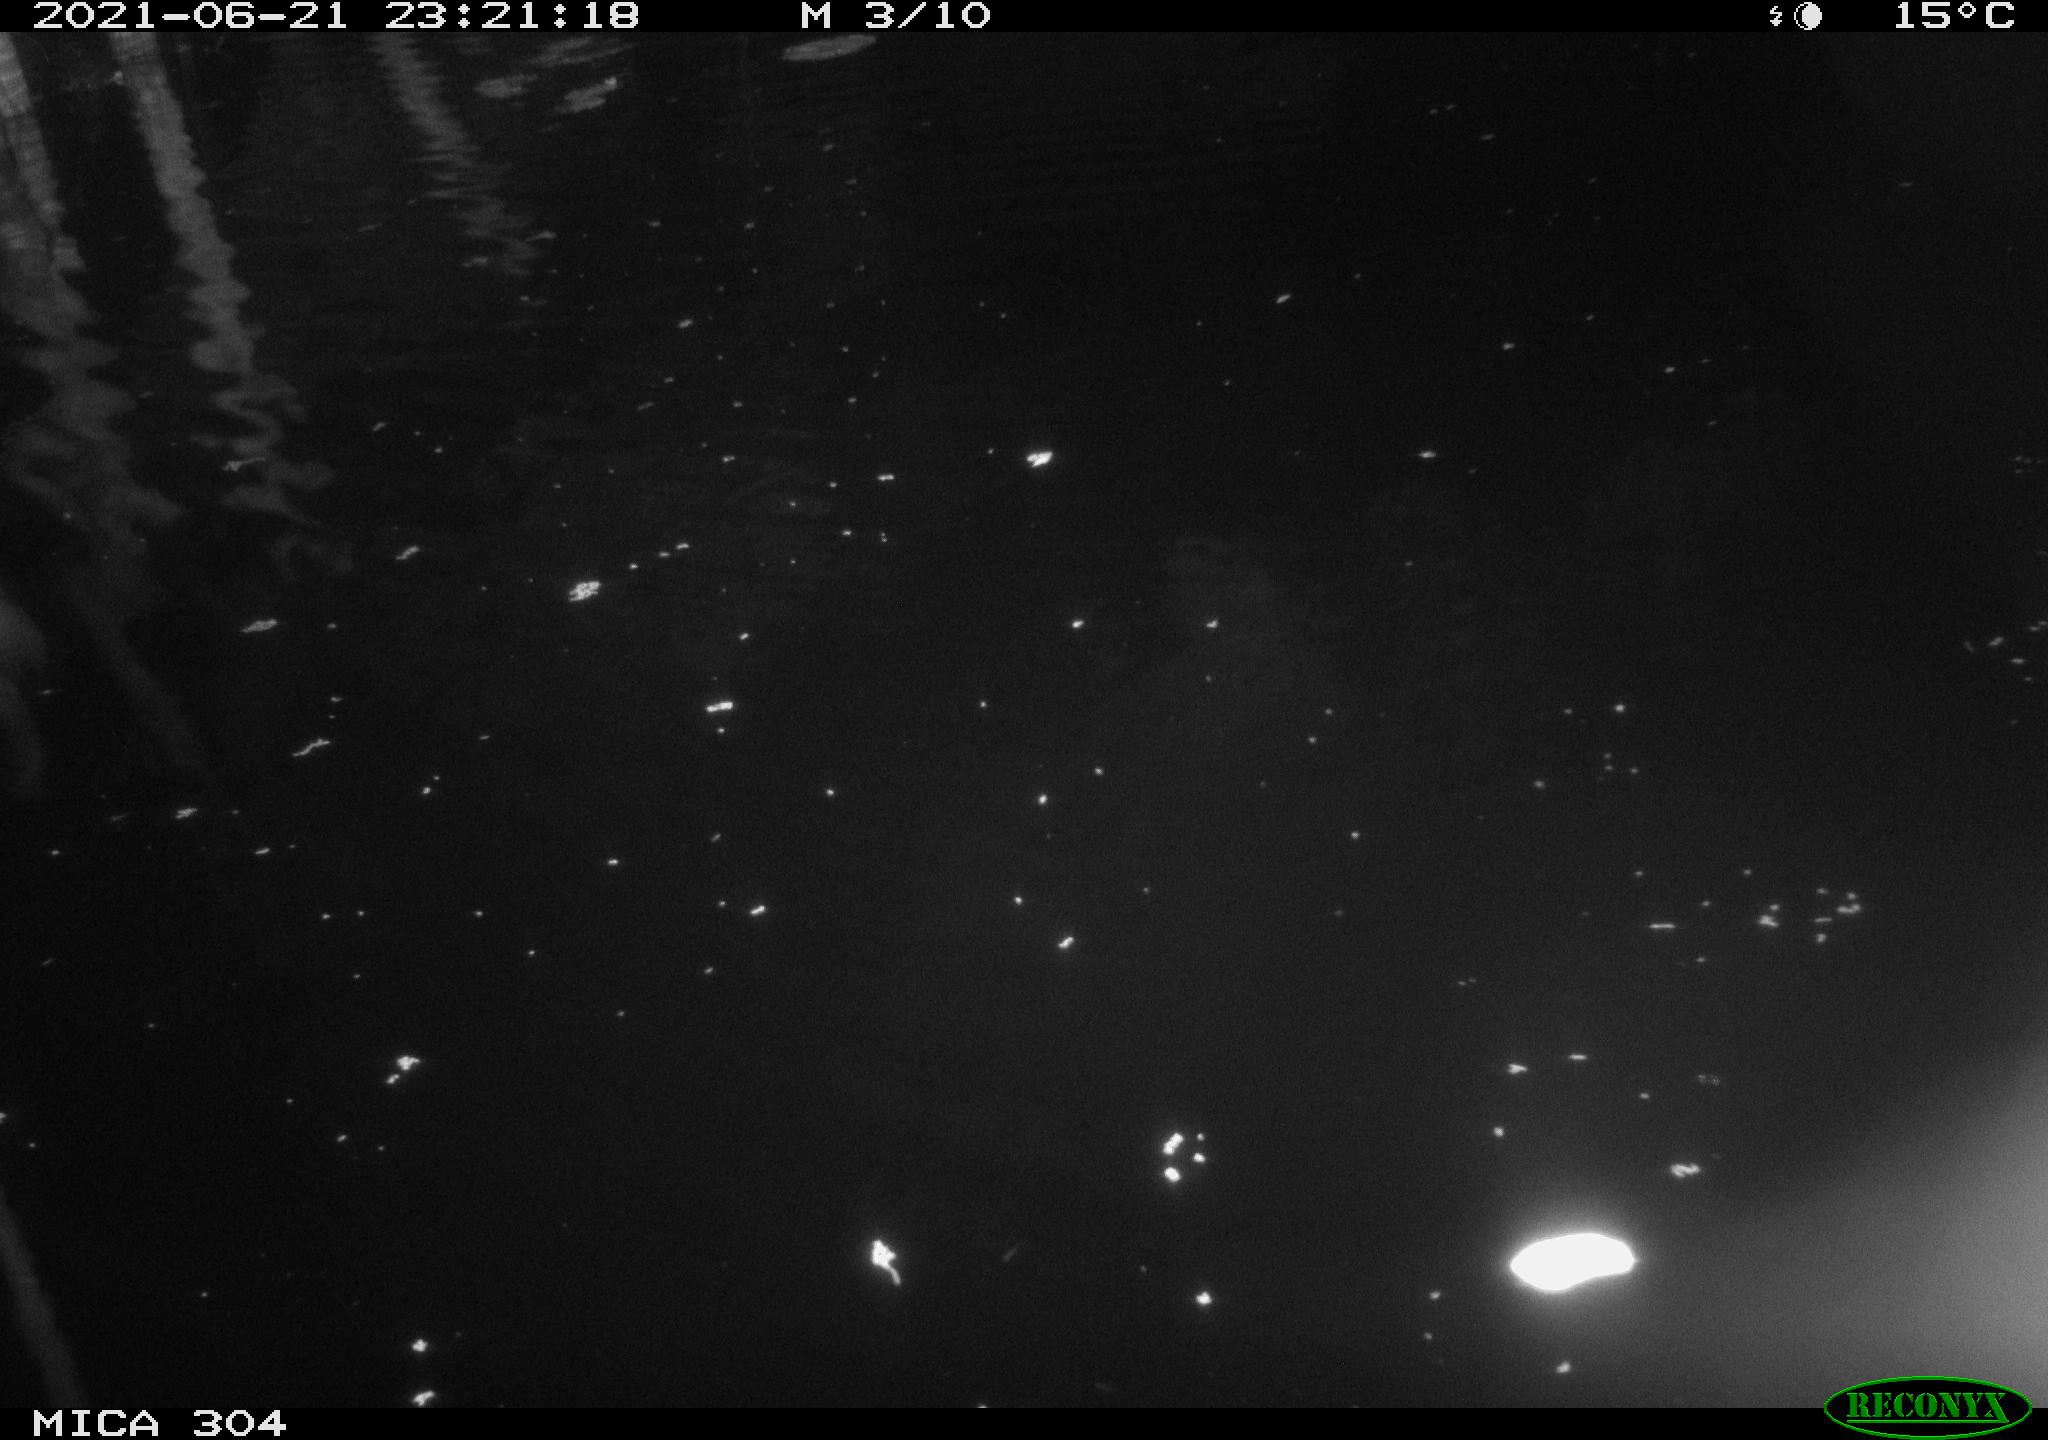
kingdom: Animalia
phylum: Chordata
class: Aves
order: Anseriformes
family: Anatidae
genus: Anas
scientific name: Anas platyrhynchos
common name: Mallard
